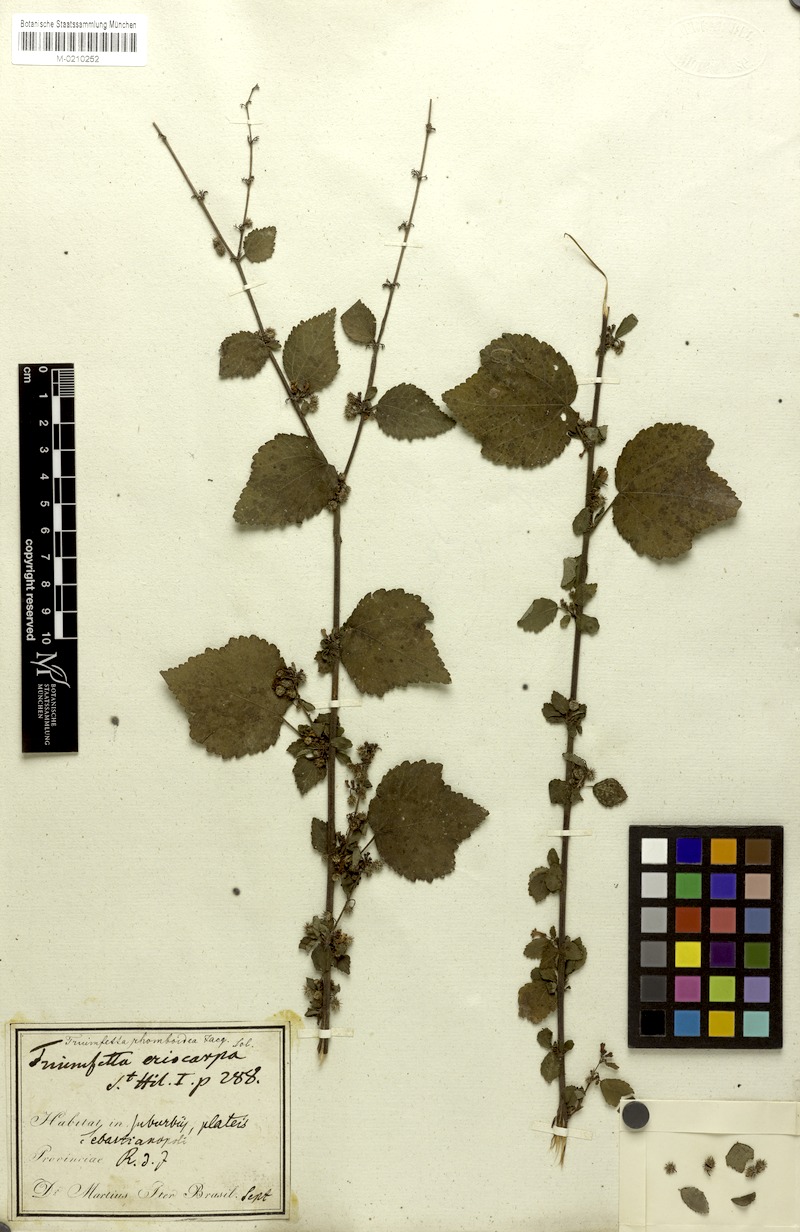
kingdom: Plantae
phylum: Tracheophyta
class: Magnoliopsida
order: Malvales
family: Malvaceae
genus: Triumfetta
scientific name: Triumfetta rhomboidea
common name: Diamond burbark
